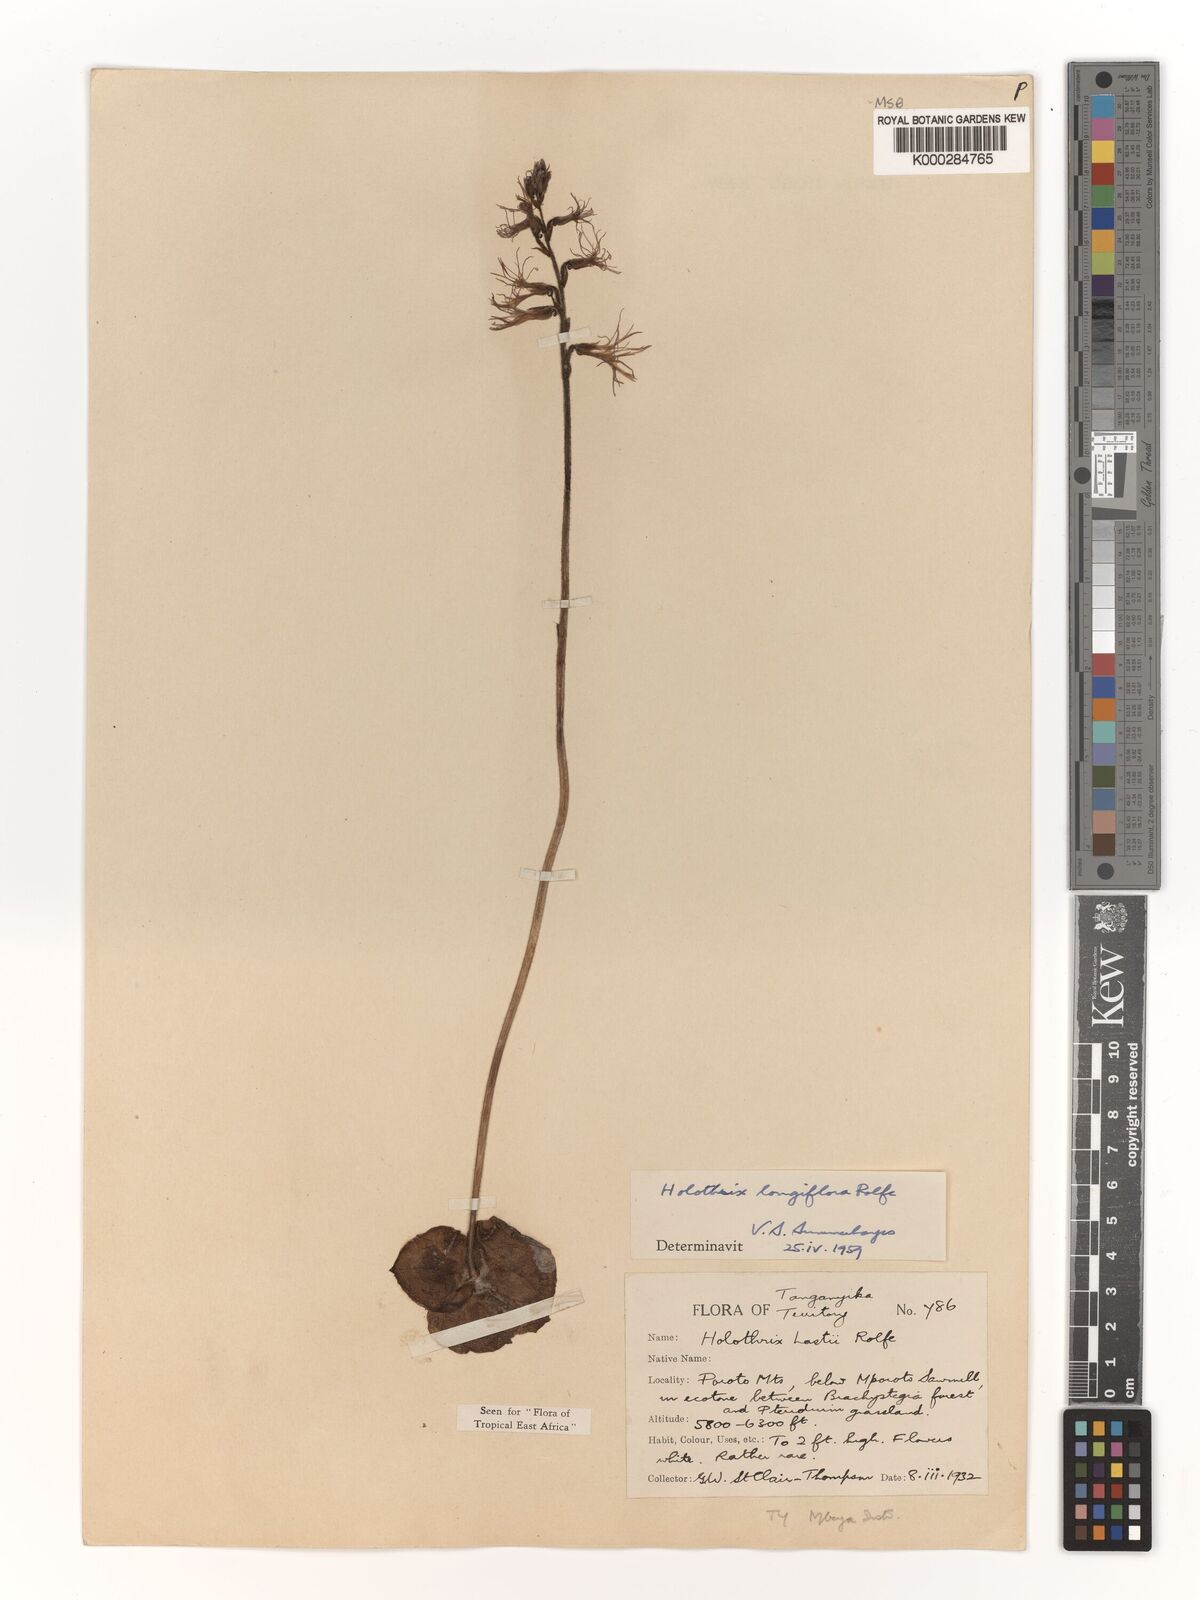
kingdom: Plantae
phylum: Tracheophyta
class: Liliopsida
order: Asparagales
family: Orchidaceae
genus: Holothrix
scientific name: Holothrix hydra
